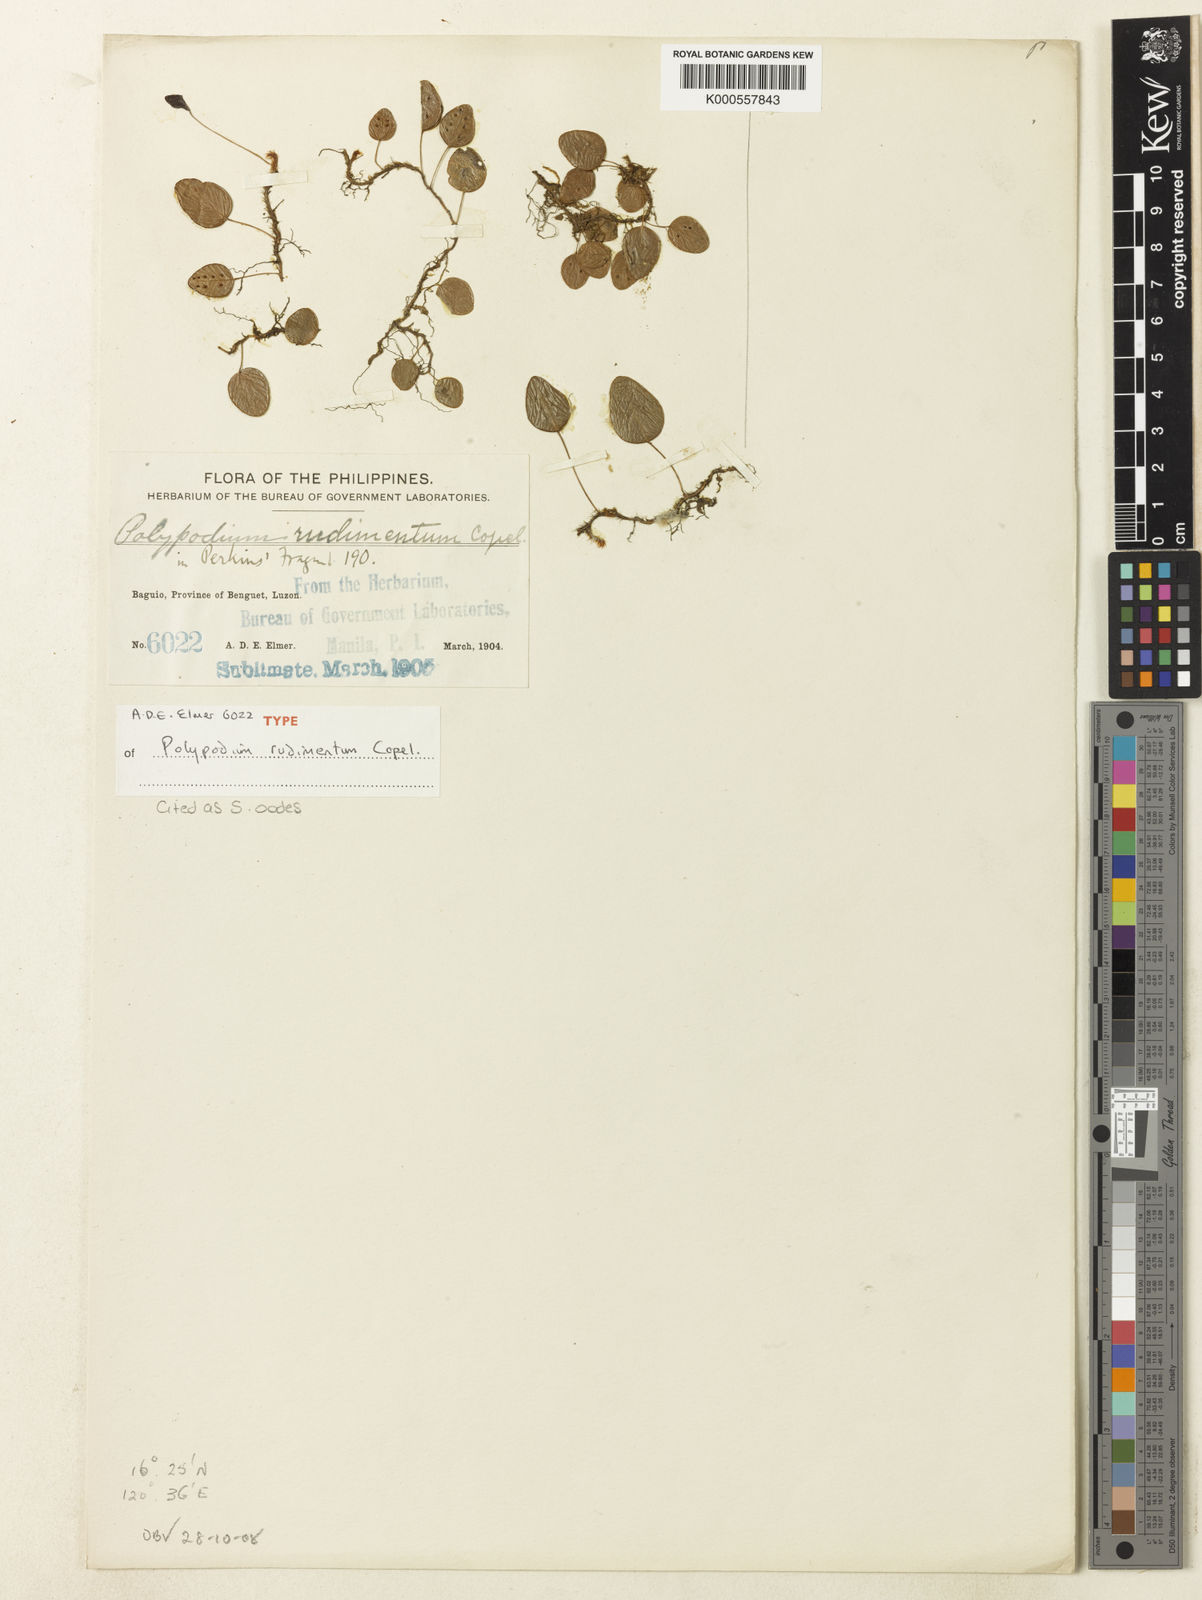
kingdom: Plantae
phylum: Tracheophyta
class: Polypodiopsida
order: Polypodiales
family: Polypodiaceae
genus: Selliguea
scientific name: Selliguea oodes
